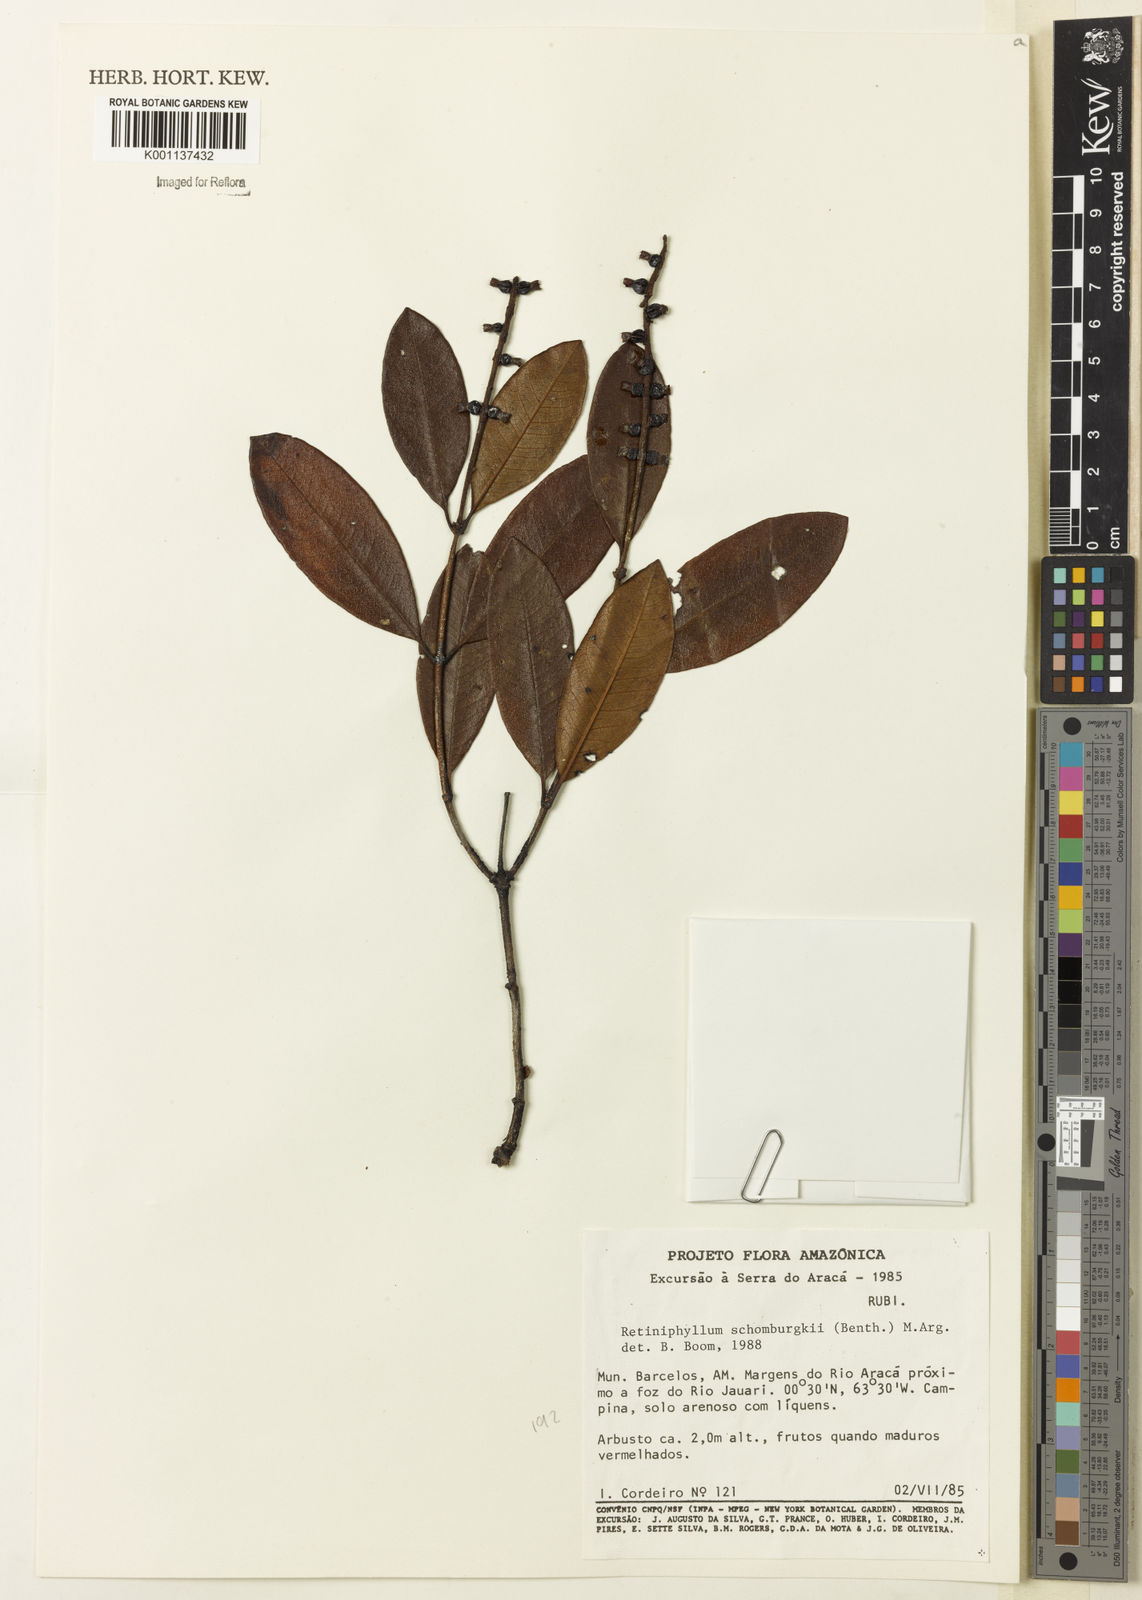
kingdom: Plantae
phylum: Tracheophyta
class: Magnoliopsida
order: Gentianales
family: Rubiaceae
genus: Retiniphyllum
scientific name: Retiniphyllum
